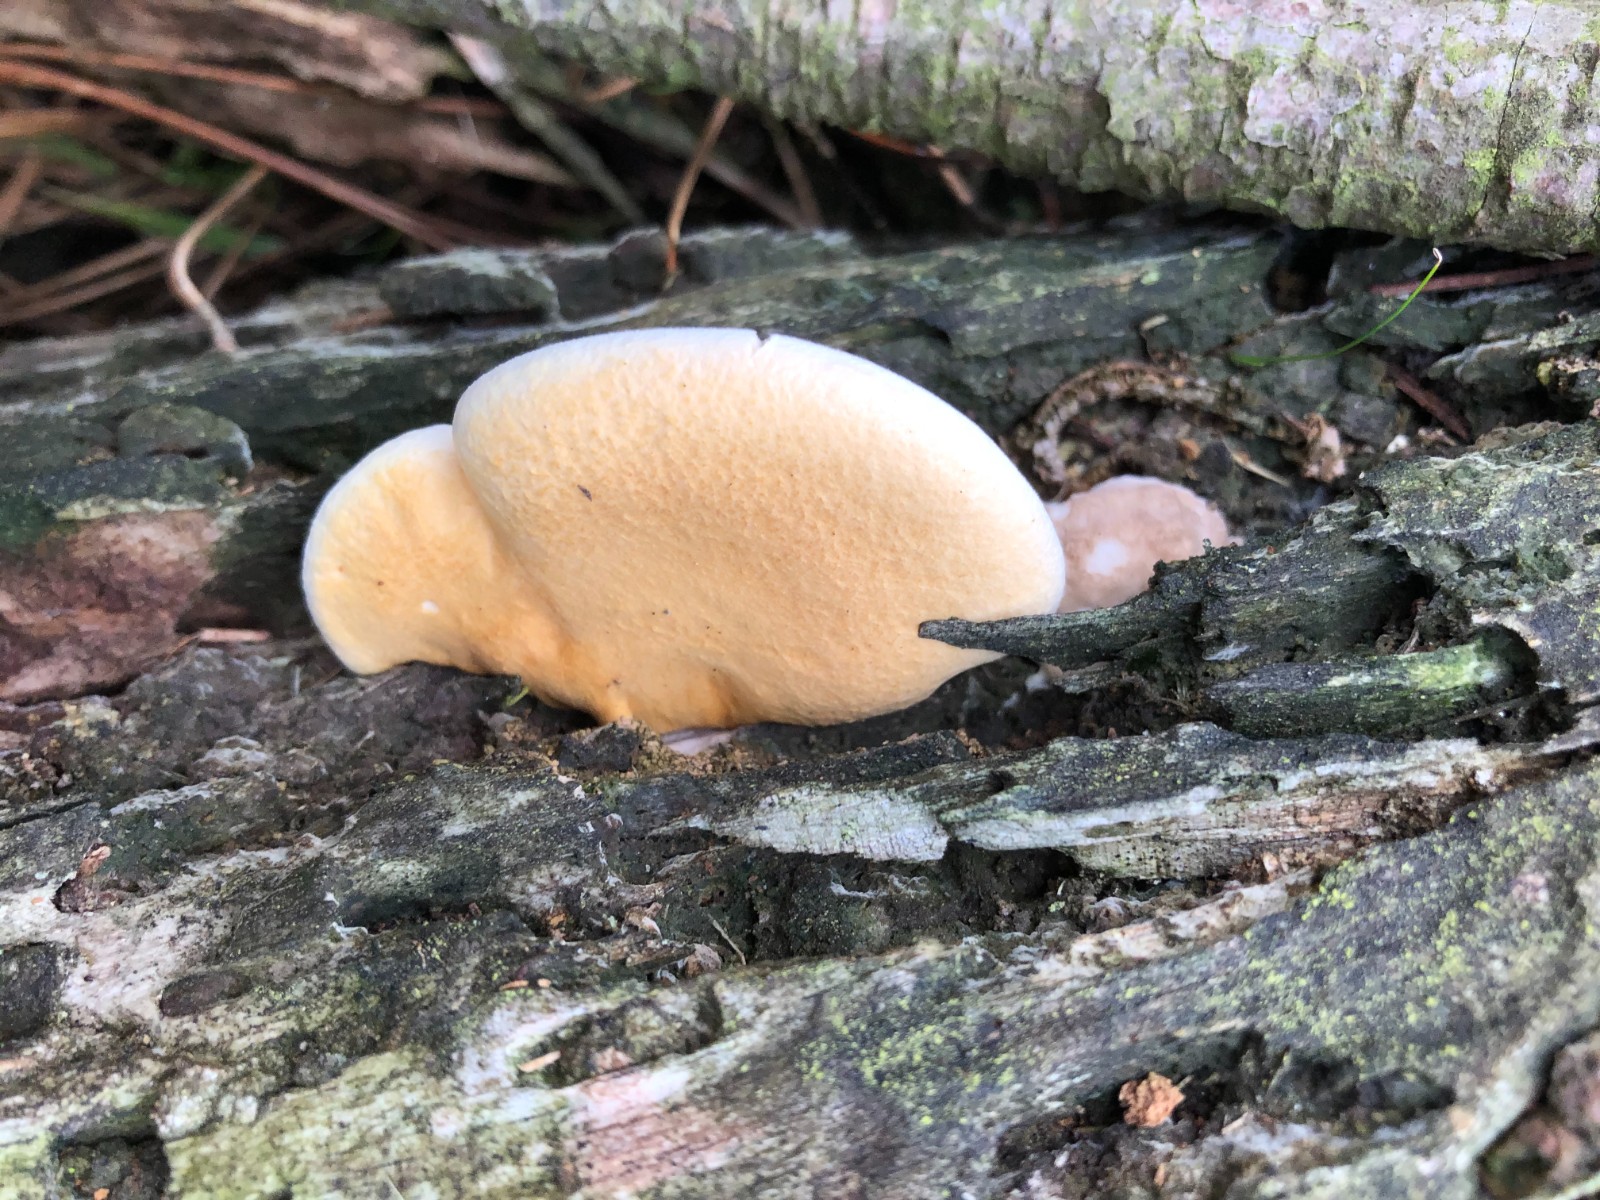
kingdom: Fungi
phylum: Basidiomycota
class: Agaricomycetes
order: Agaricales
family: Hygrophoraceae
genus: Aphroditeola
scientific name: Aphroditeola
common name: Orangekantarel
